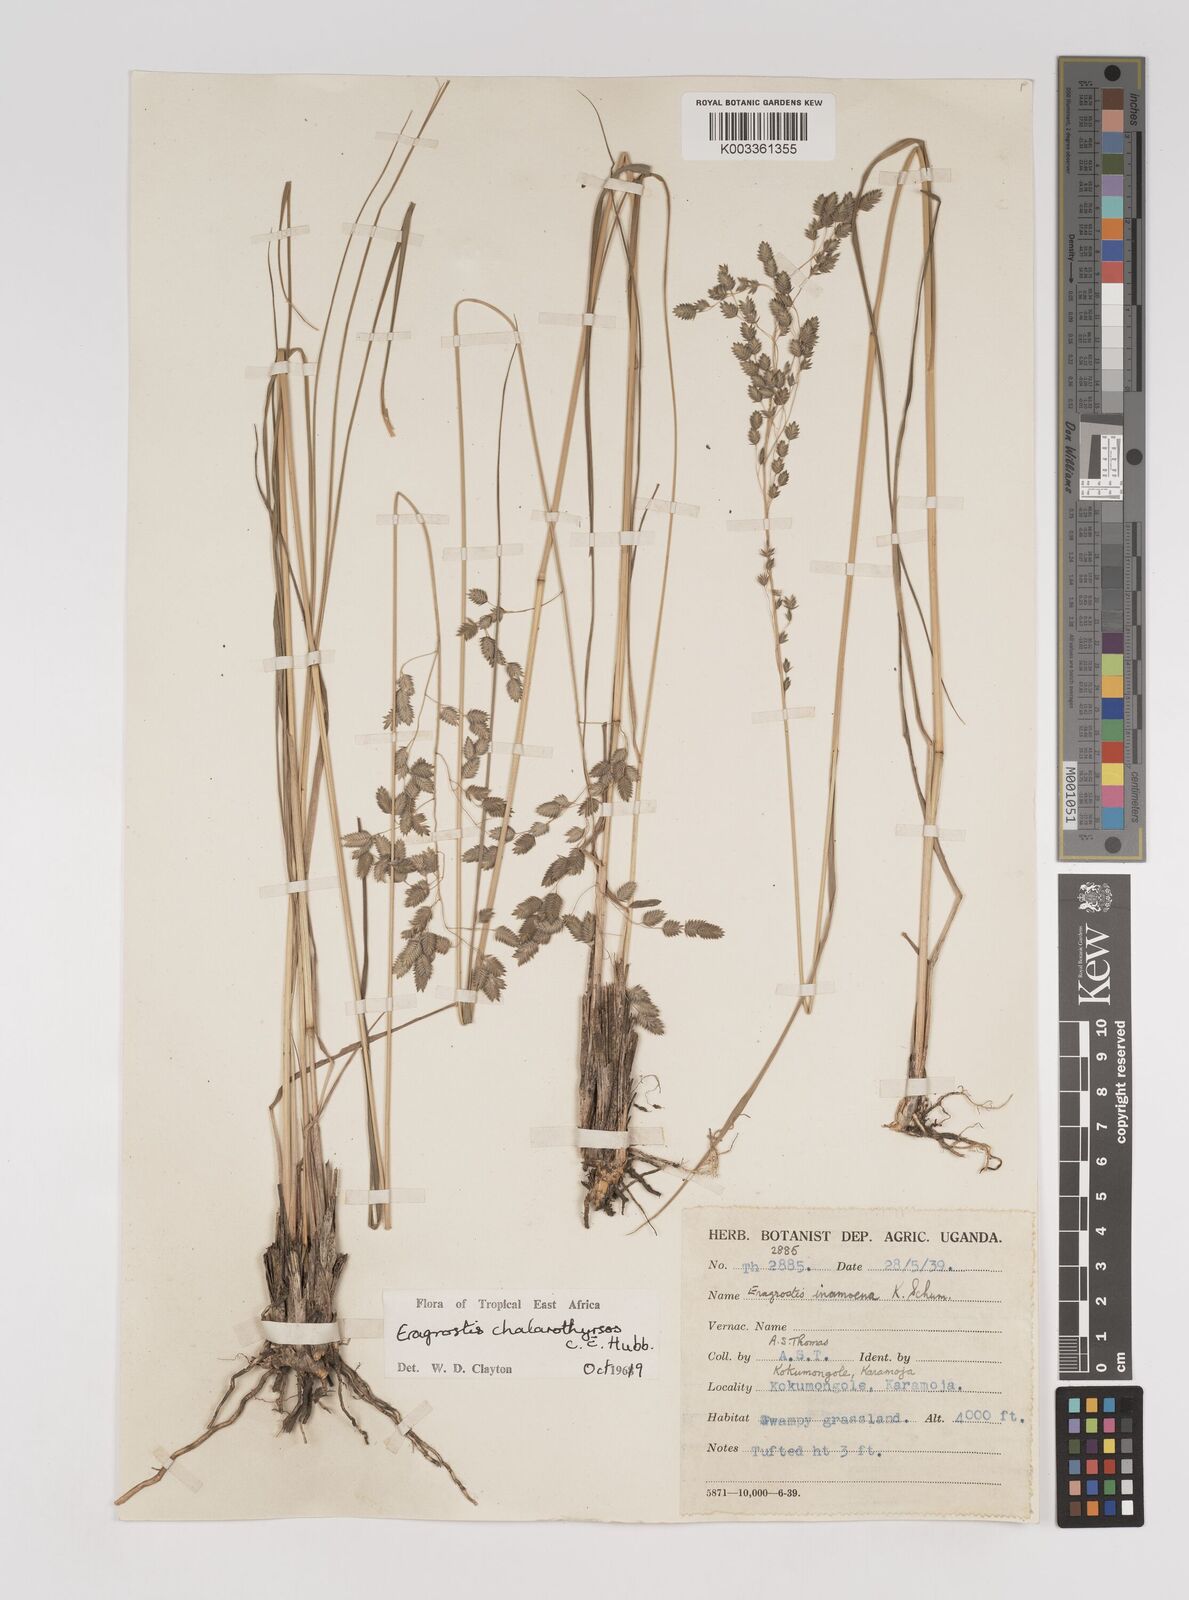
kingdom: Plantae
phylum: Tracheophyta
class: Liliopsida
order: Poales
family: Poaceae
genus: Eragrostis
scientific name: Eragrostis chalarothyrsos
